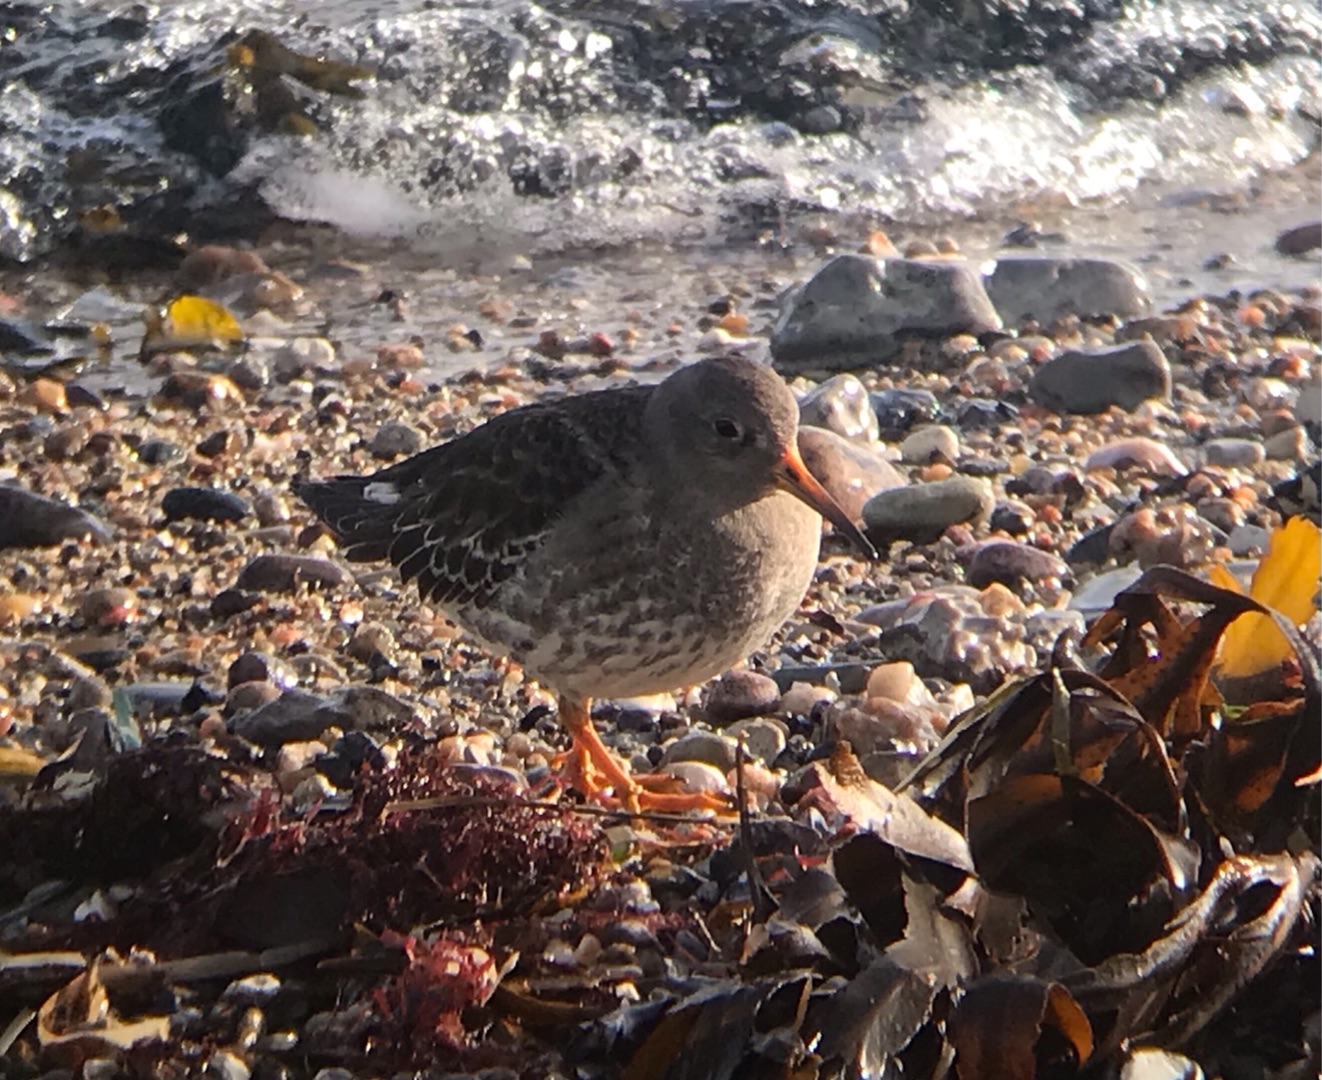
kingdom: Animalia
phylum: Chordata
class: Aves
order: Charadriiformes
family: Scolopacidae
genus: Calidris
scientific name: Calidris maritima
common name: Sortgrå ryle
